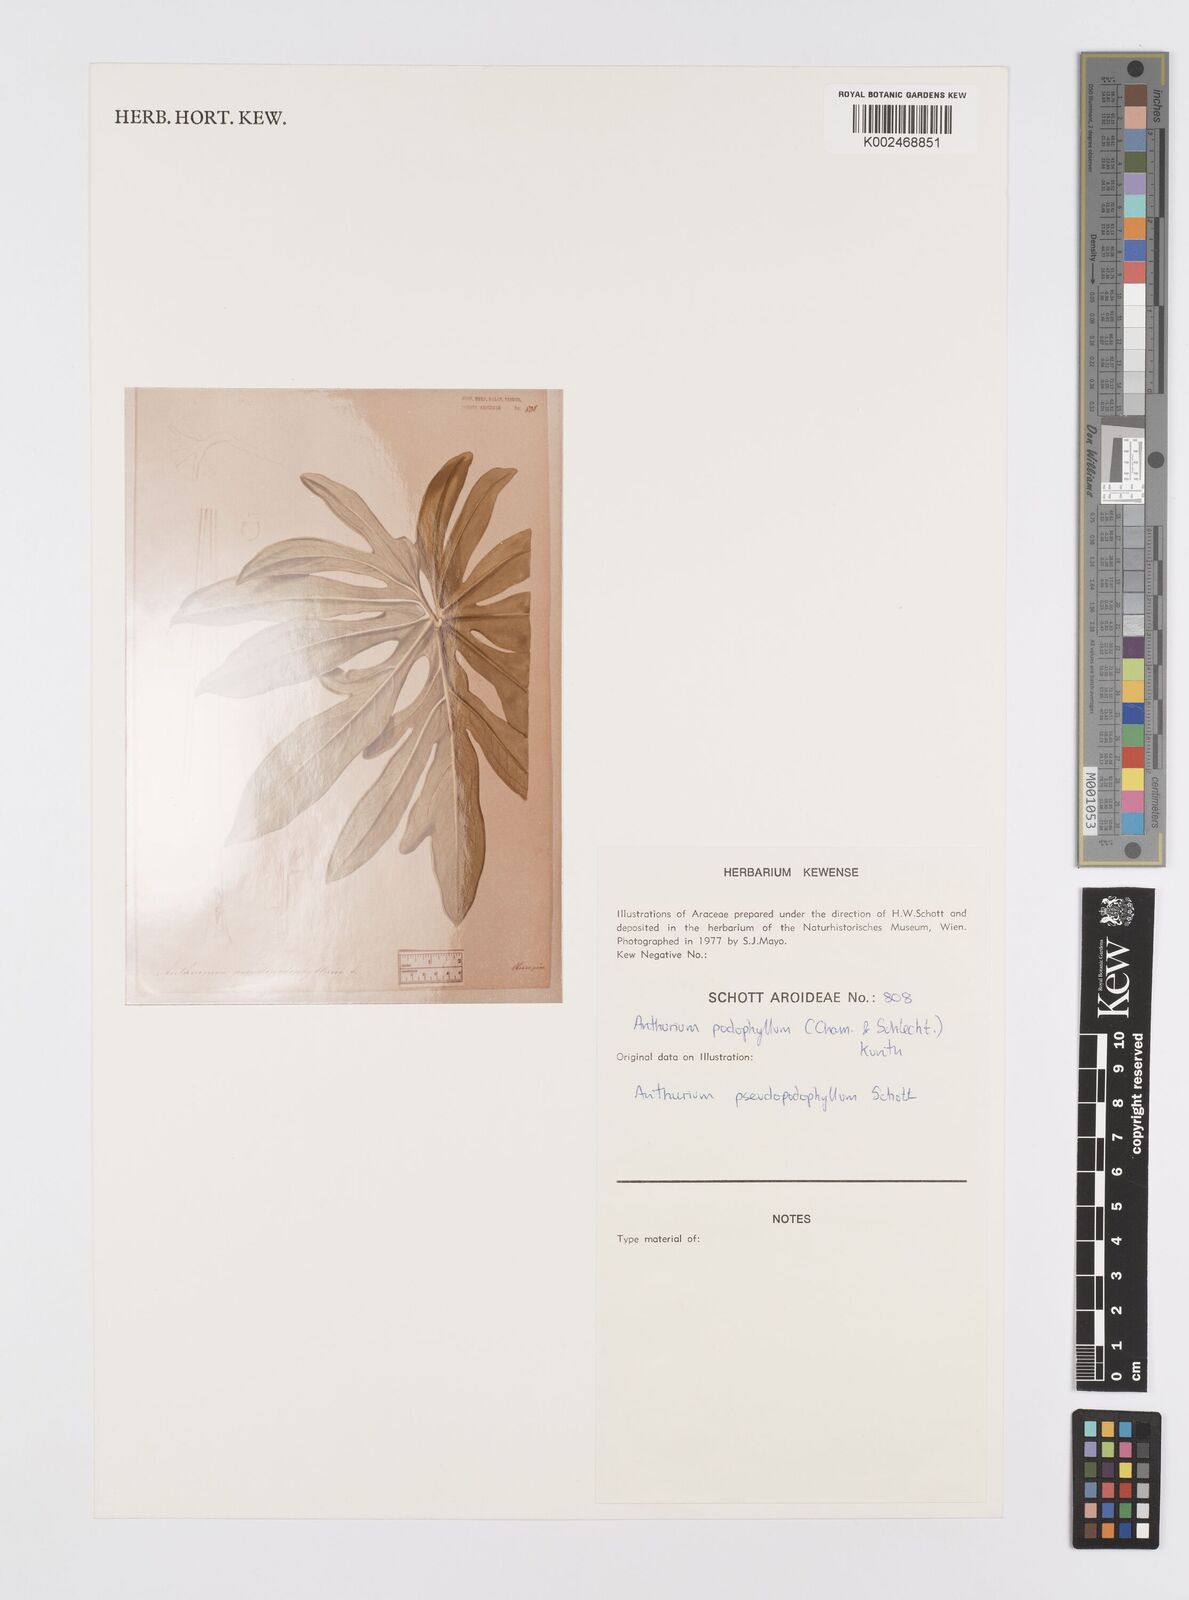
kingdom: Plantae
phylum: Tracheophyta
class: Liliopsida
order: Alismatales
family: Araceae
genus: Anthurium
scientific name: Anthurium podophyllum
